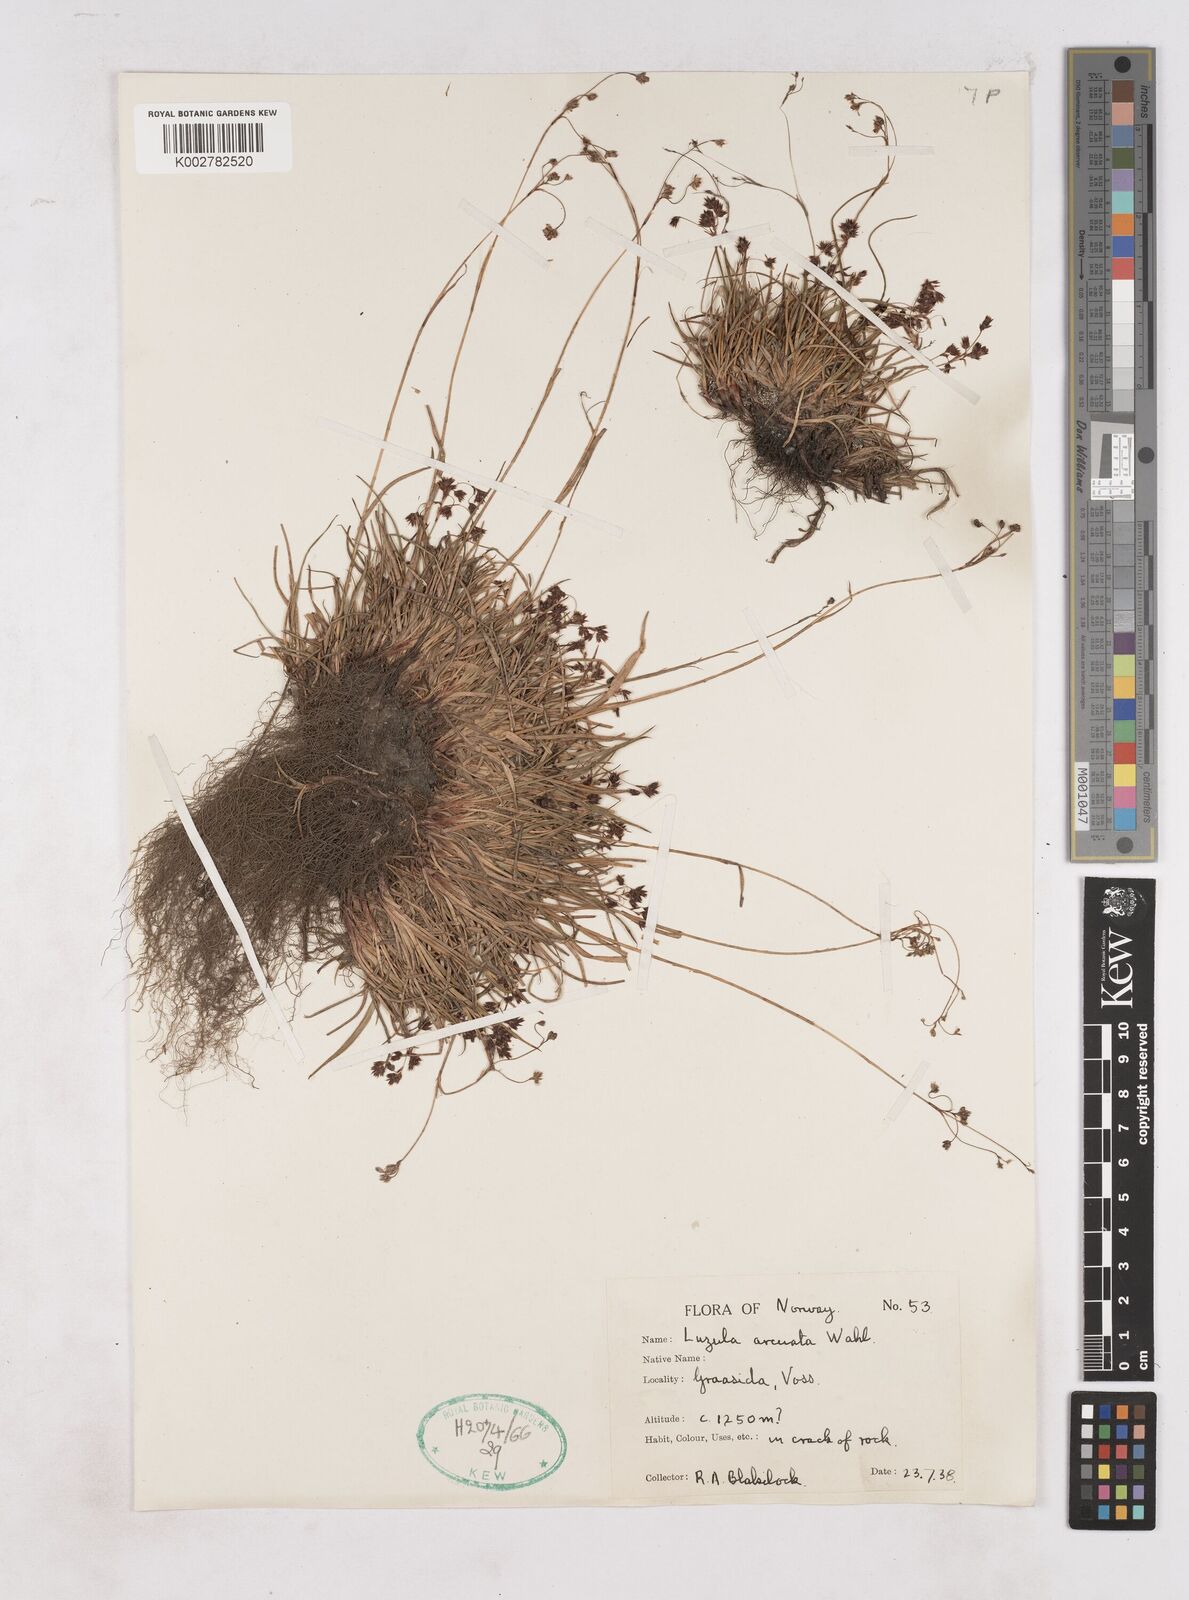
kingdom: Plantae
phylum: Tracheophyta
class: Liliopsida
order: Poales
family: Juncaceae
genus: Luzula
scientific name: Luzula arcuata
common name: Curved wood-rush
